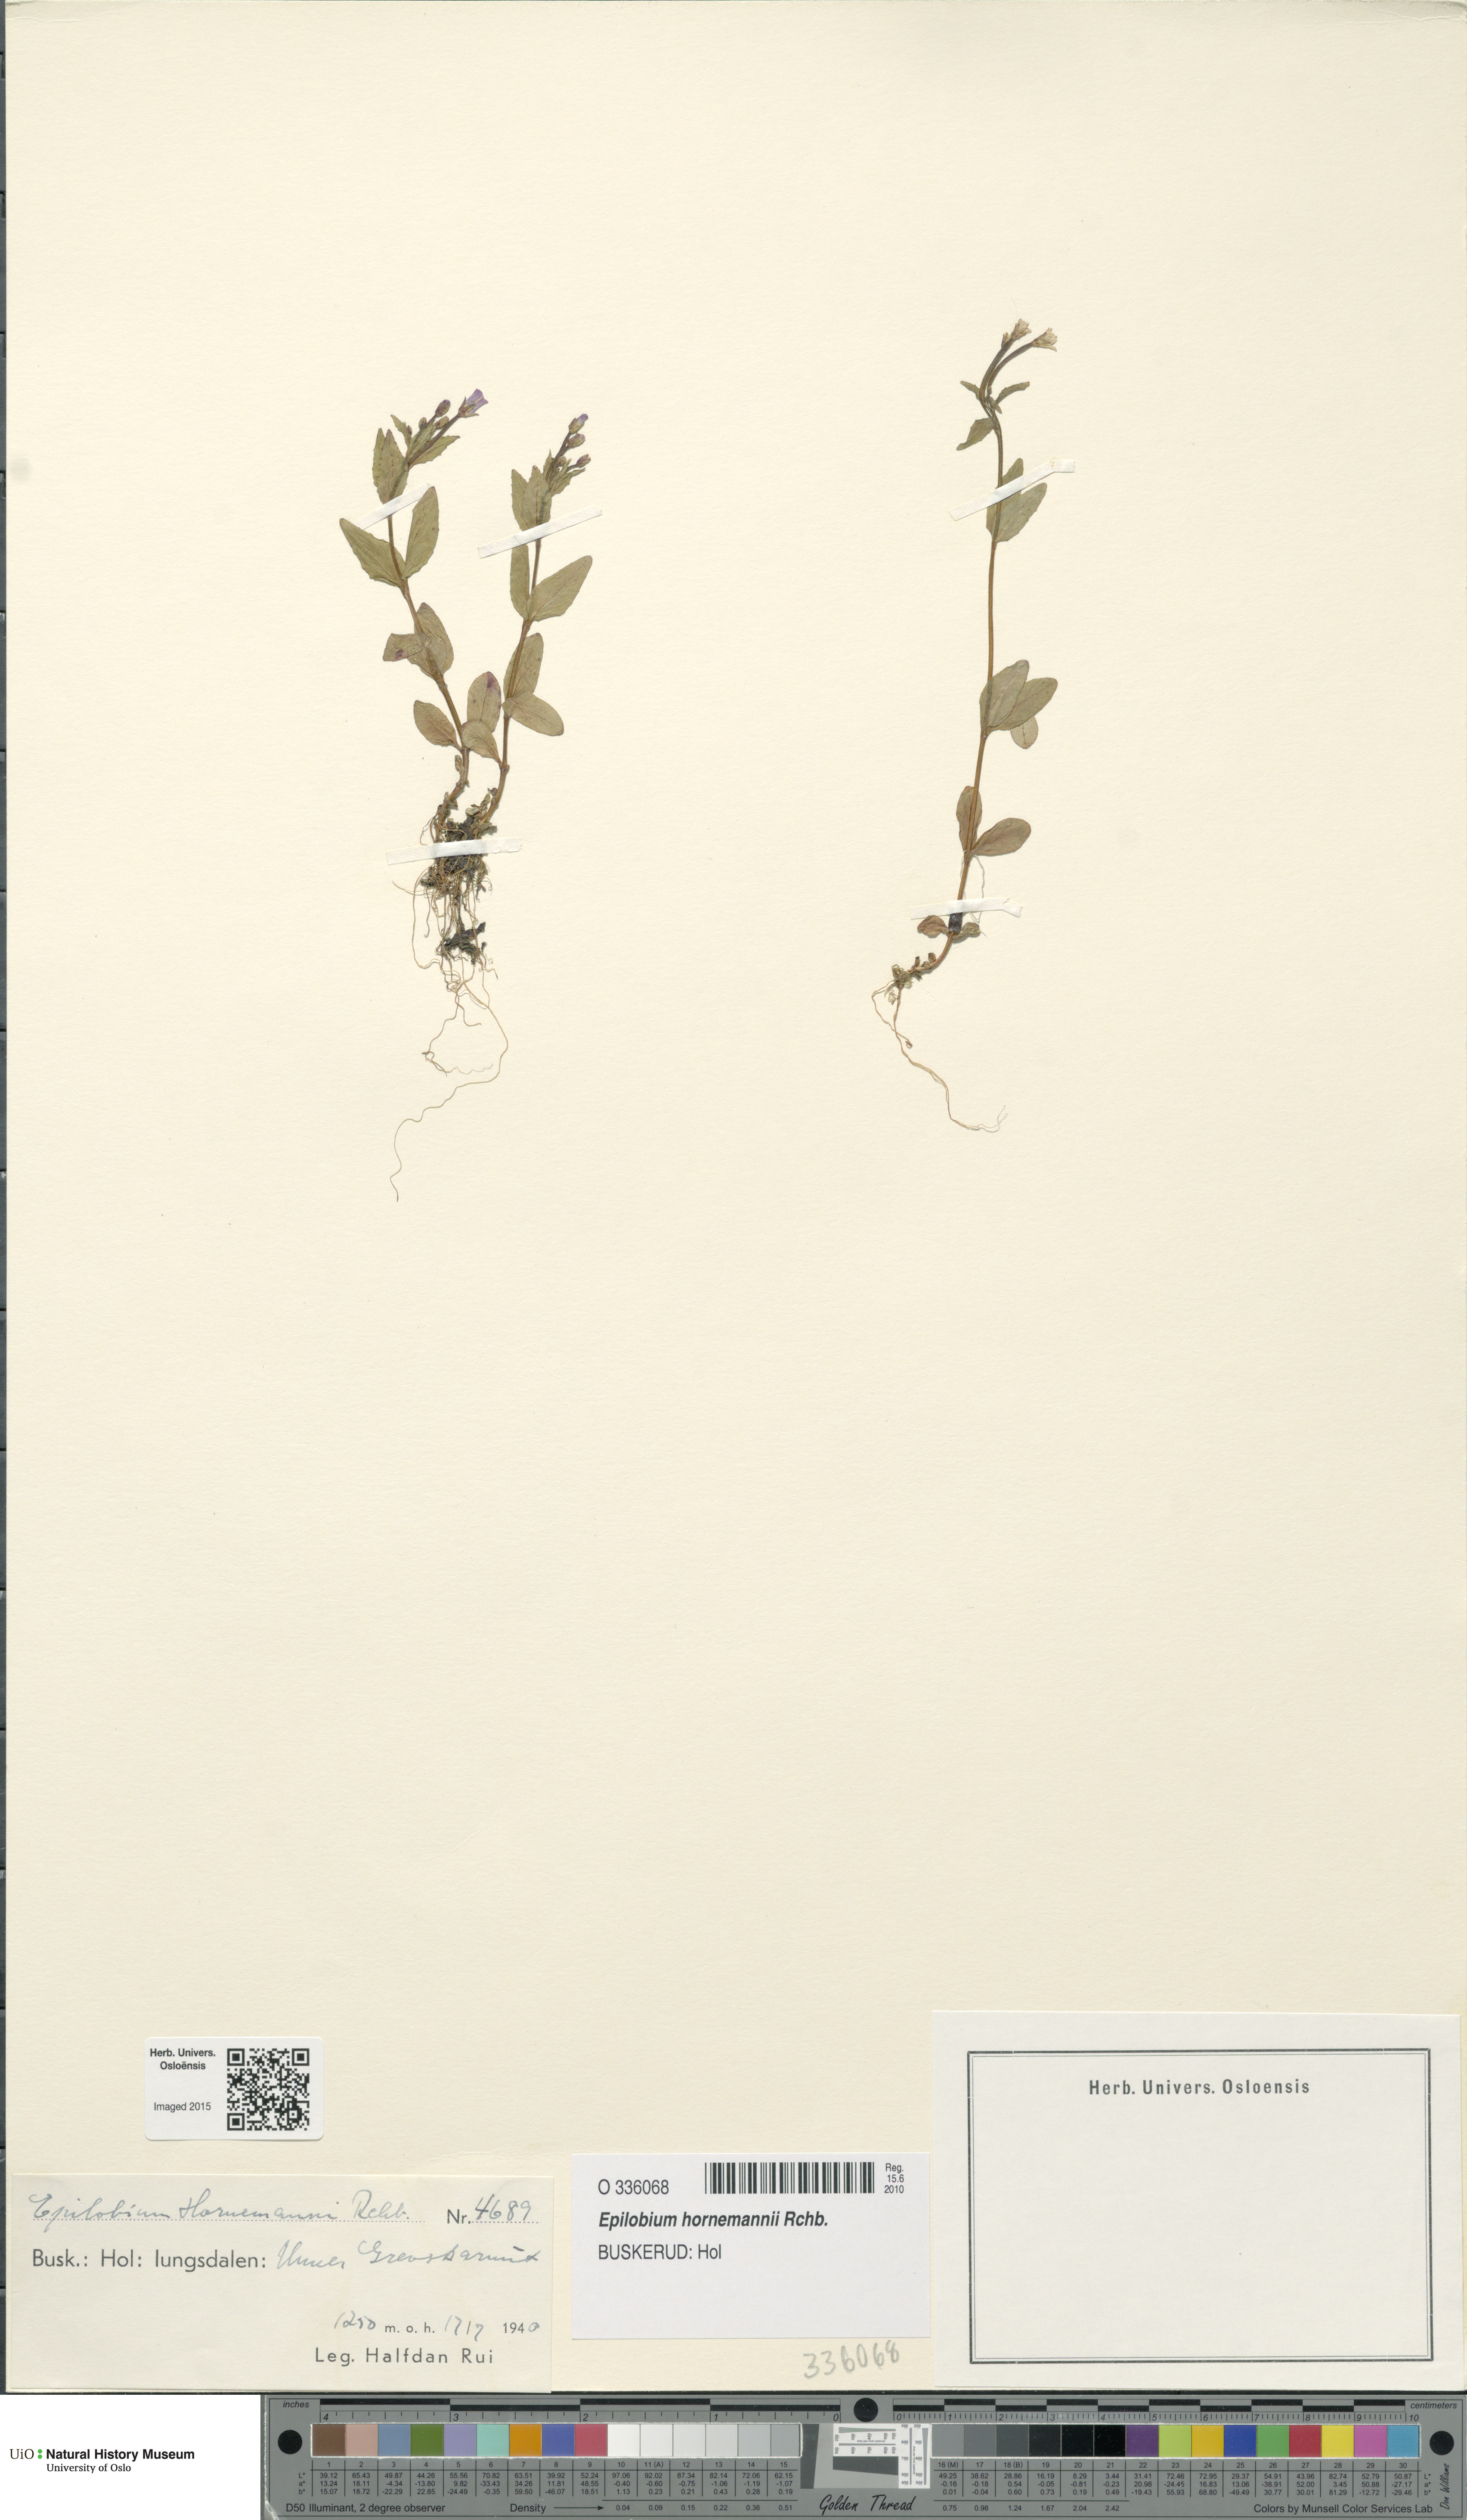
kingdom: Plantae
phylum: Tracheophyta
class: Magnoliopsida
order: Myrtales
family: Onagraceae
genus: Epilobium
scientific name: Epilobium hornemannii
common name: Hornemann's willowherb
